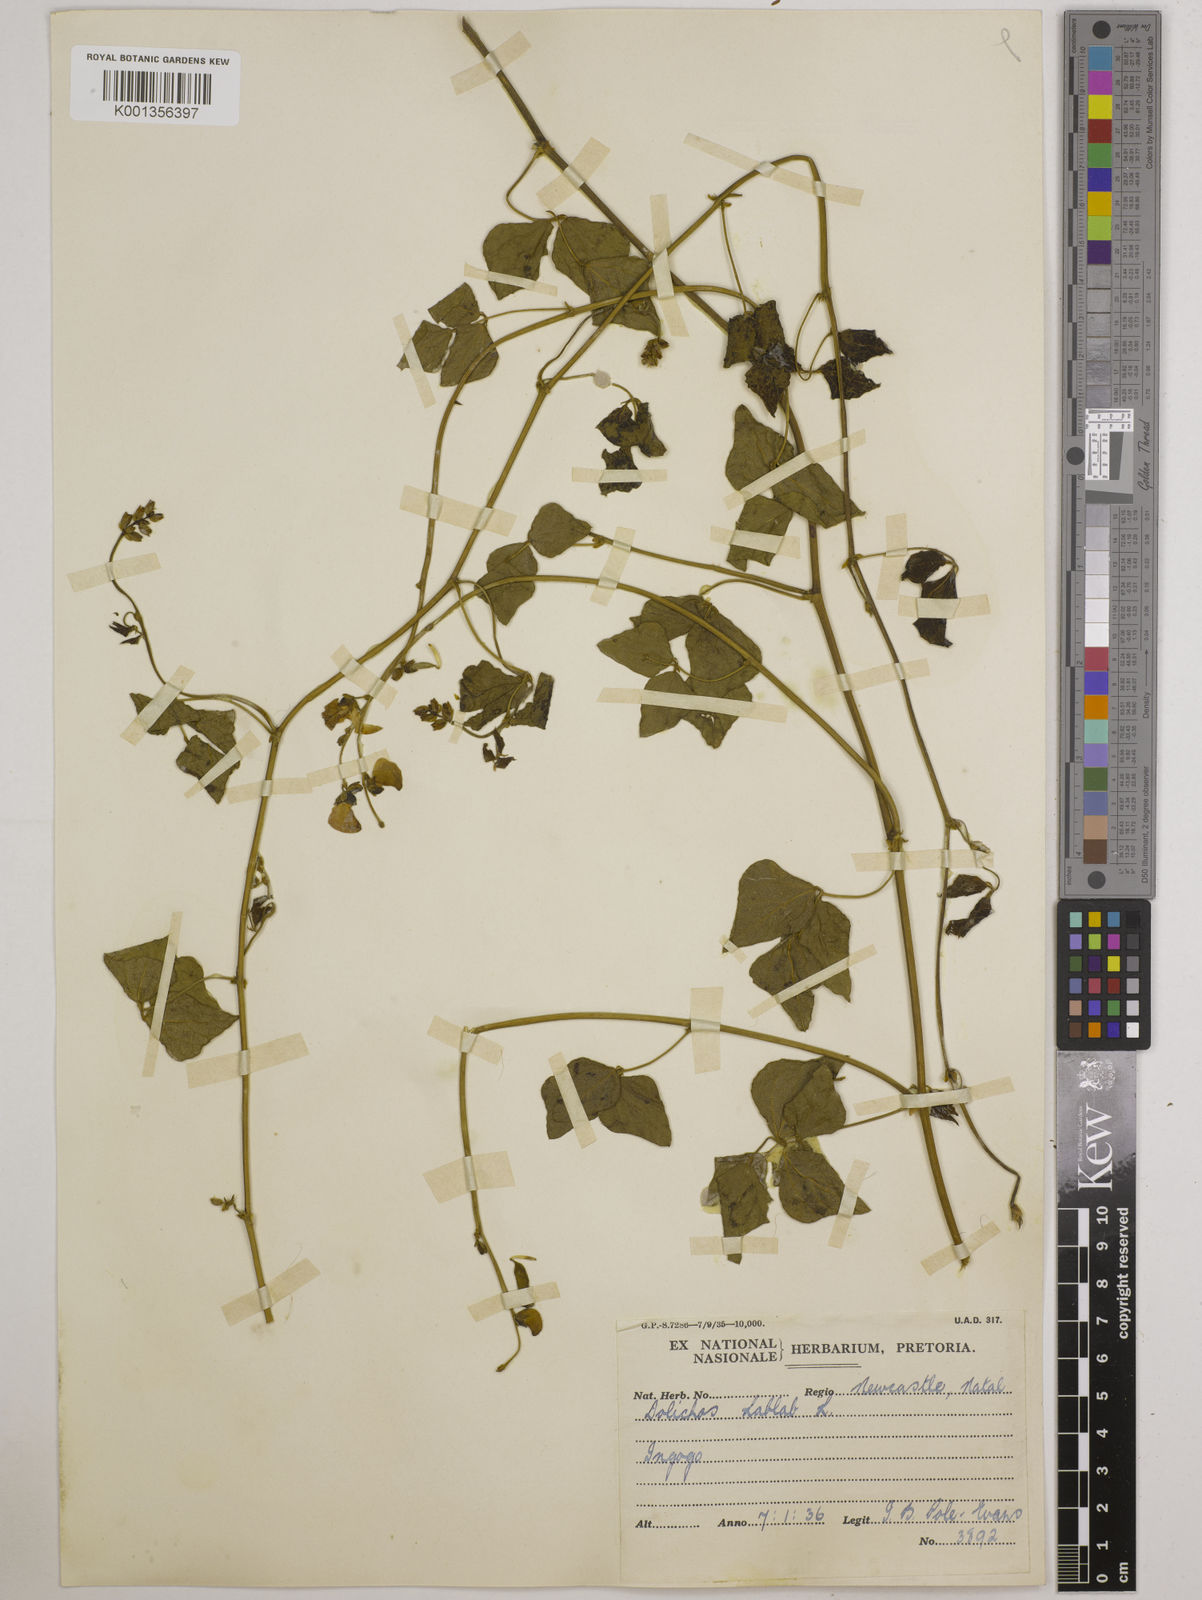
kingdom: Plantae
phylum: Tracheophyta
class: Magnoliopsida
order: Fabales
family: Fabaceae
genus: Lablab
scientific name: Lablab purpureus
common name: Lablab-bean
